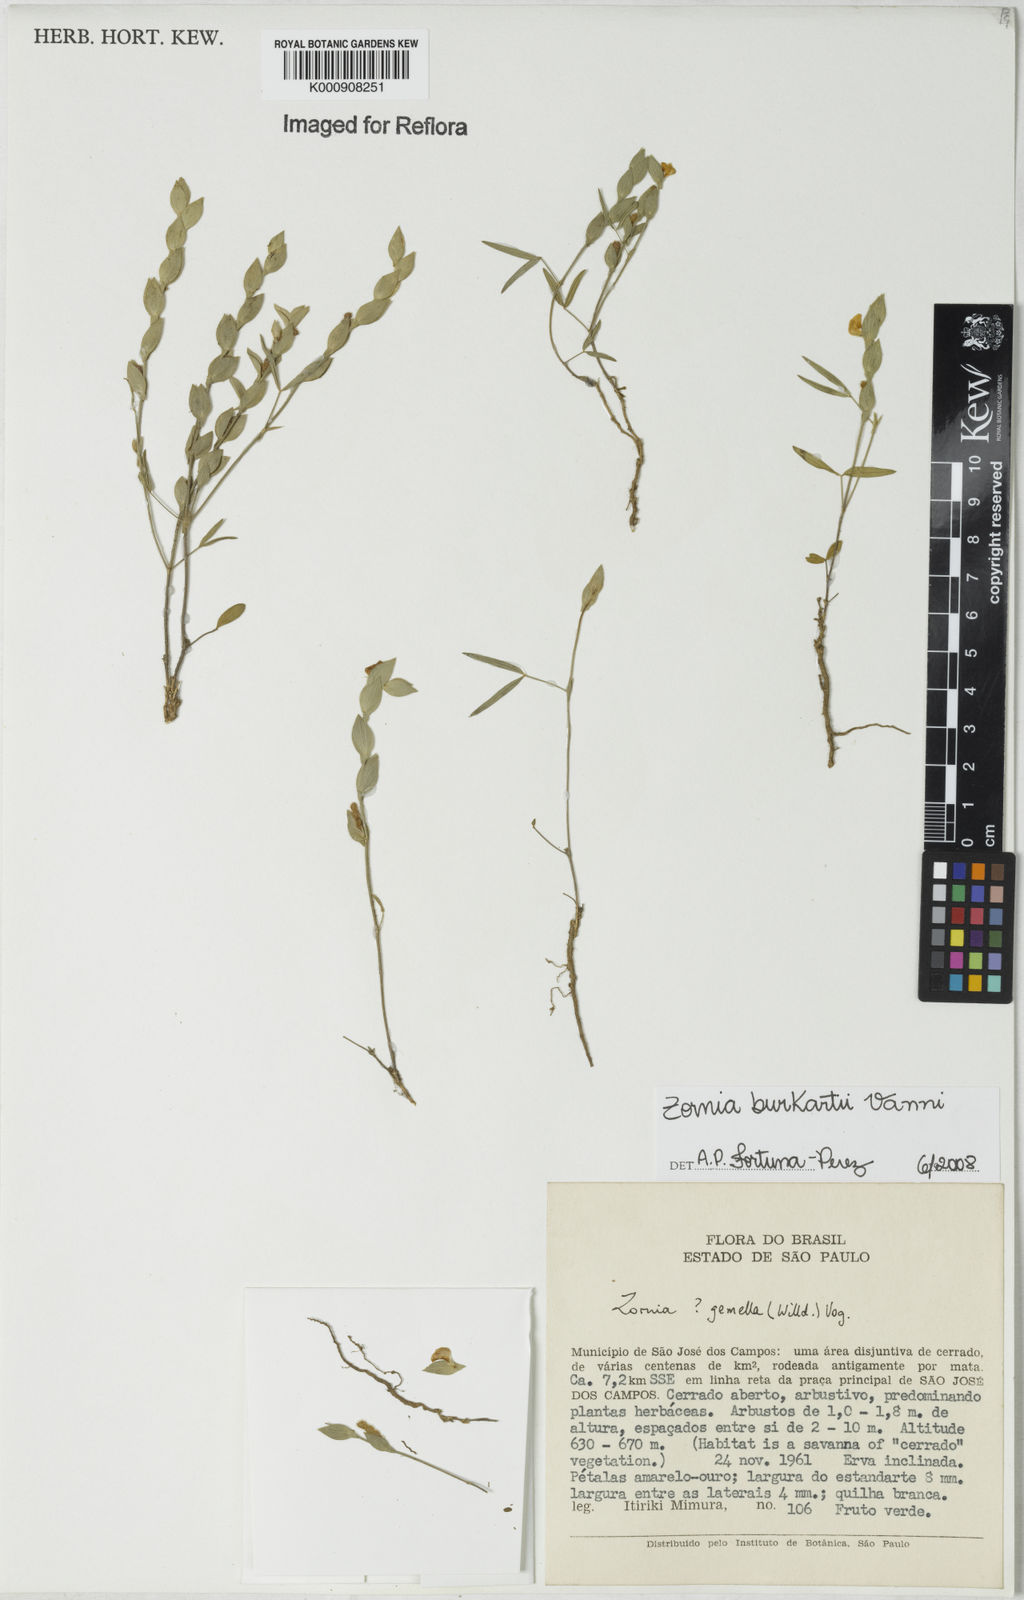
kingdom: Plantae
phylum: Tracheophyta
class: Magnoliopsida
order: Fabales
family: Fabaceae
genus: Zornia
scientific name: Zornia burkartii
